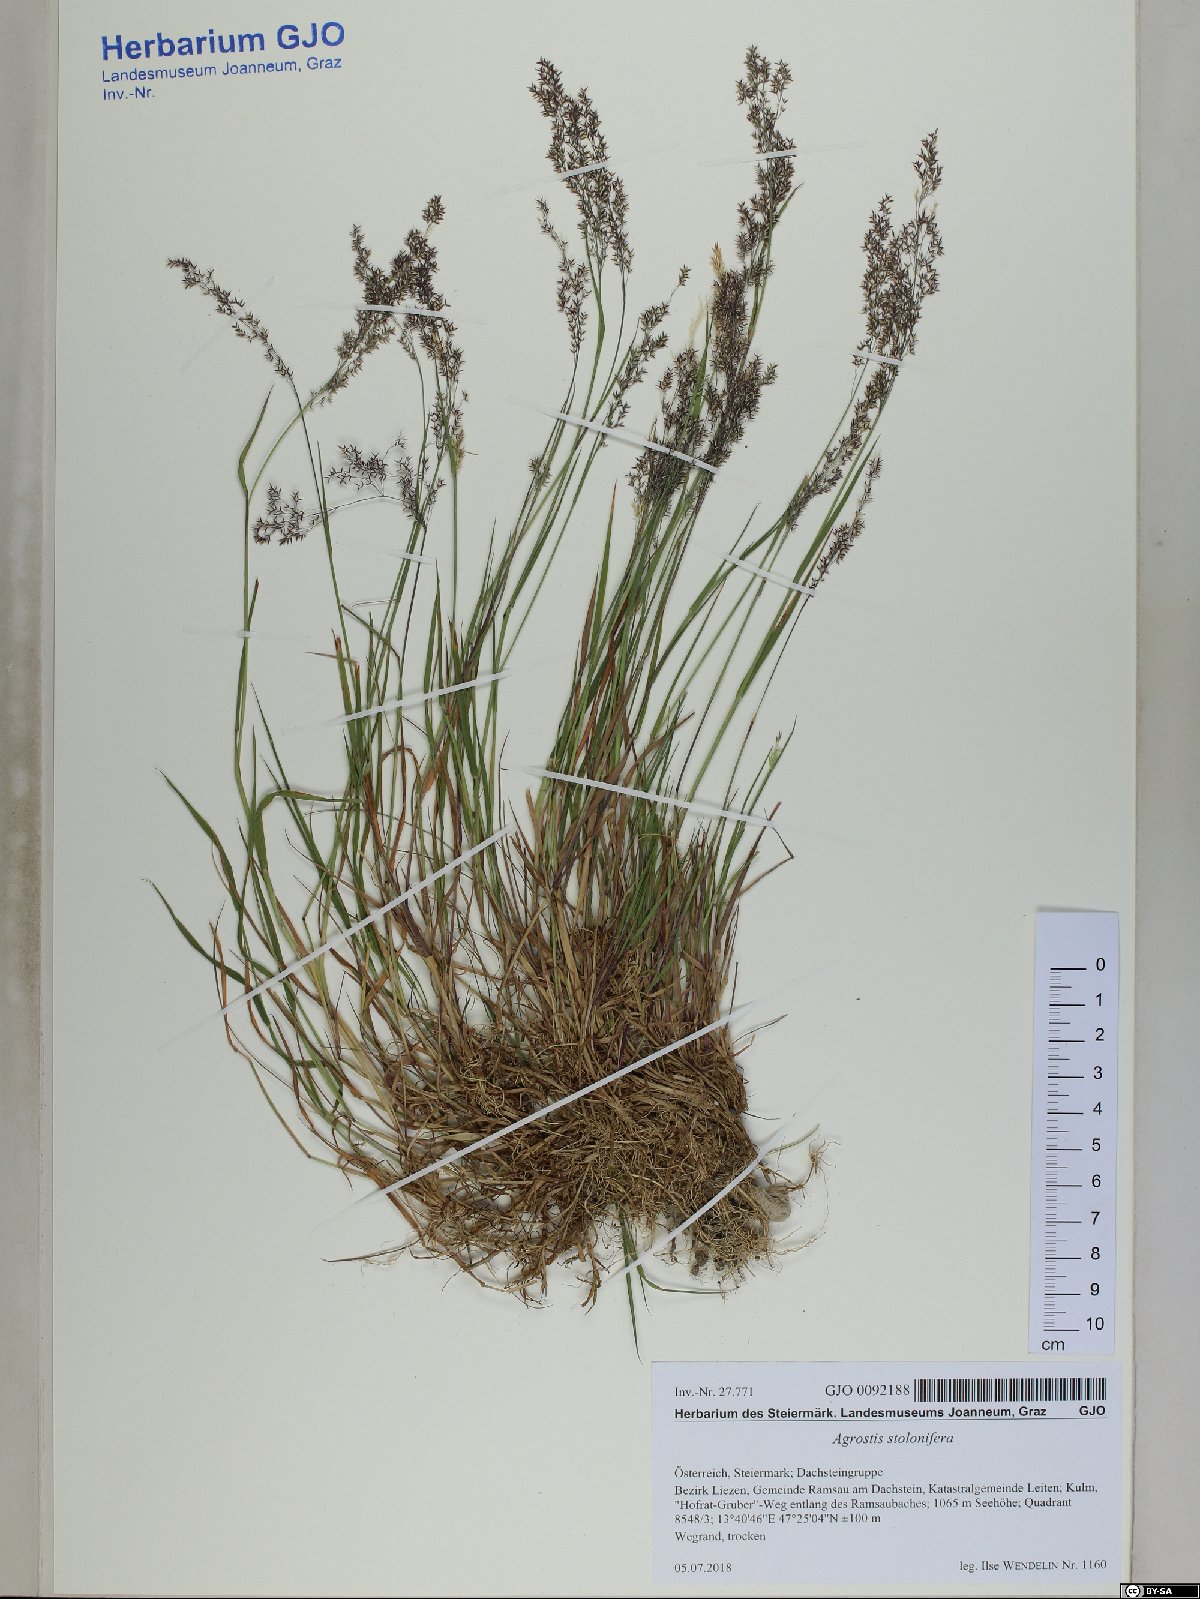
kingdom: Plantae
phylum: Tracheophyta
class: Liliopsida
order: Poales
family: Poaceae
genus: Agrostis
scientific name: Agrostis stolonifera
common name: Creeping bentgrass
